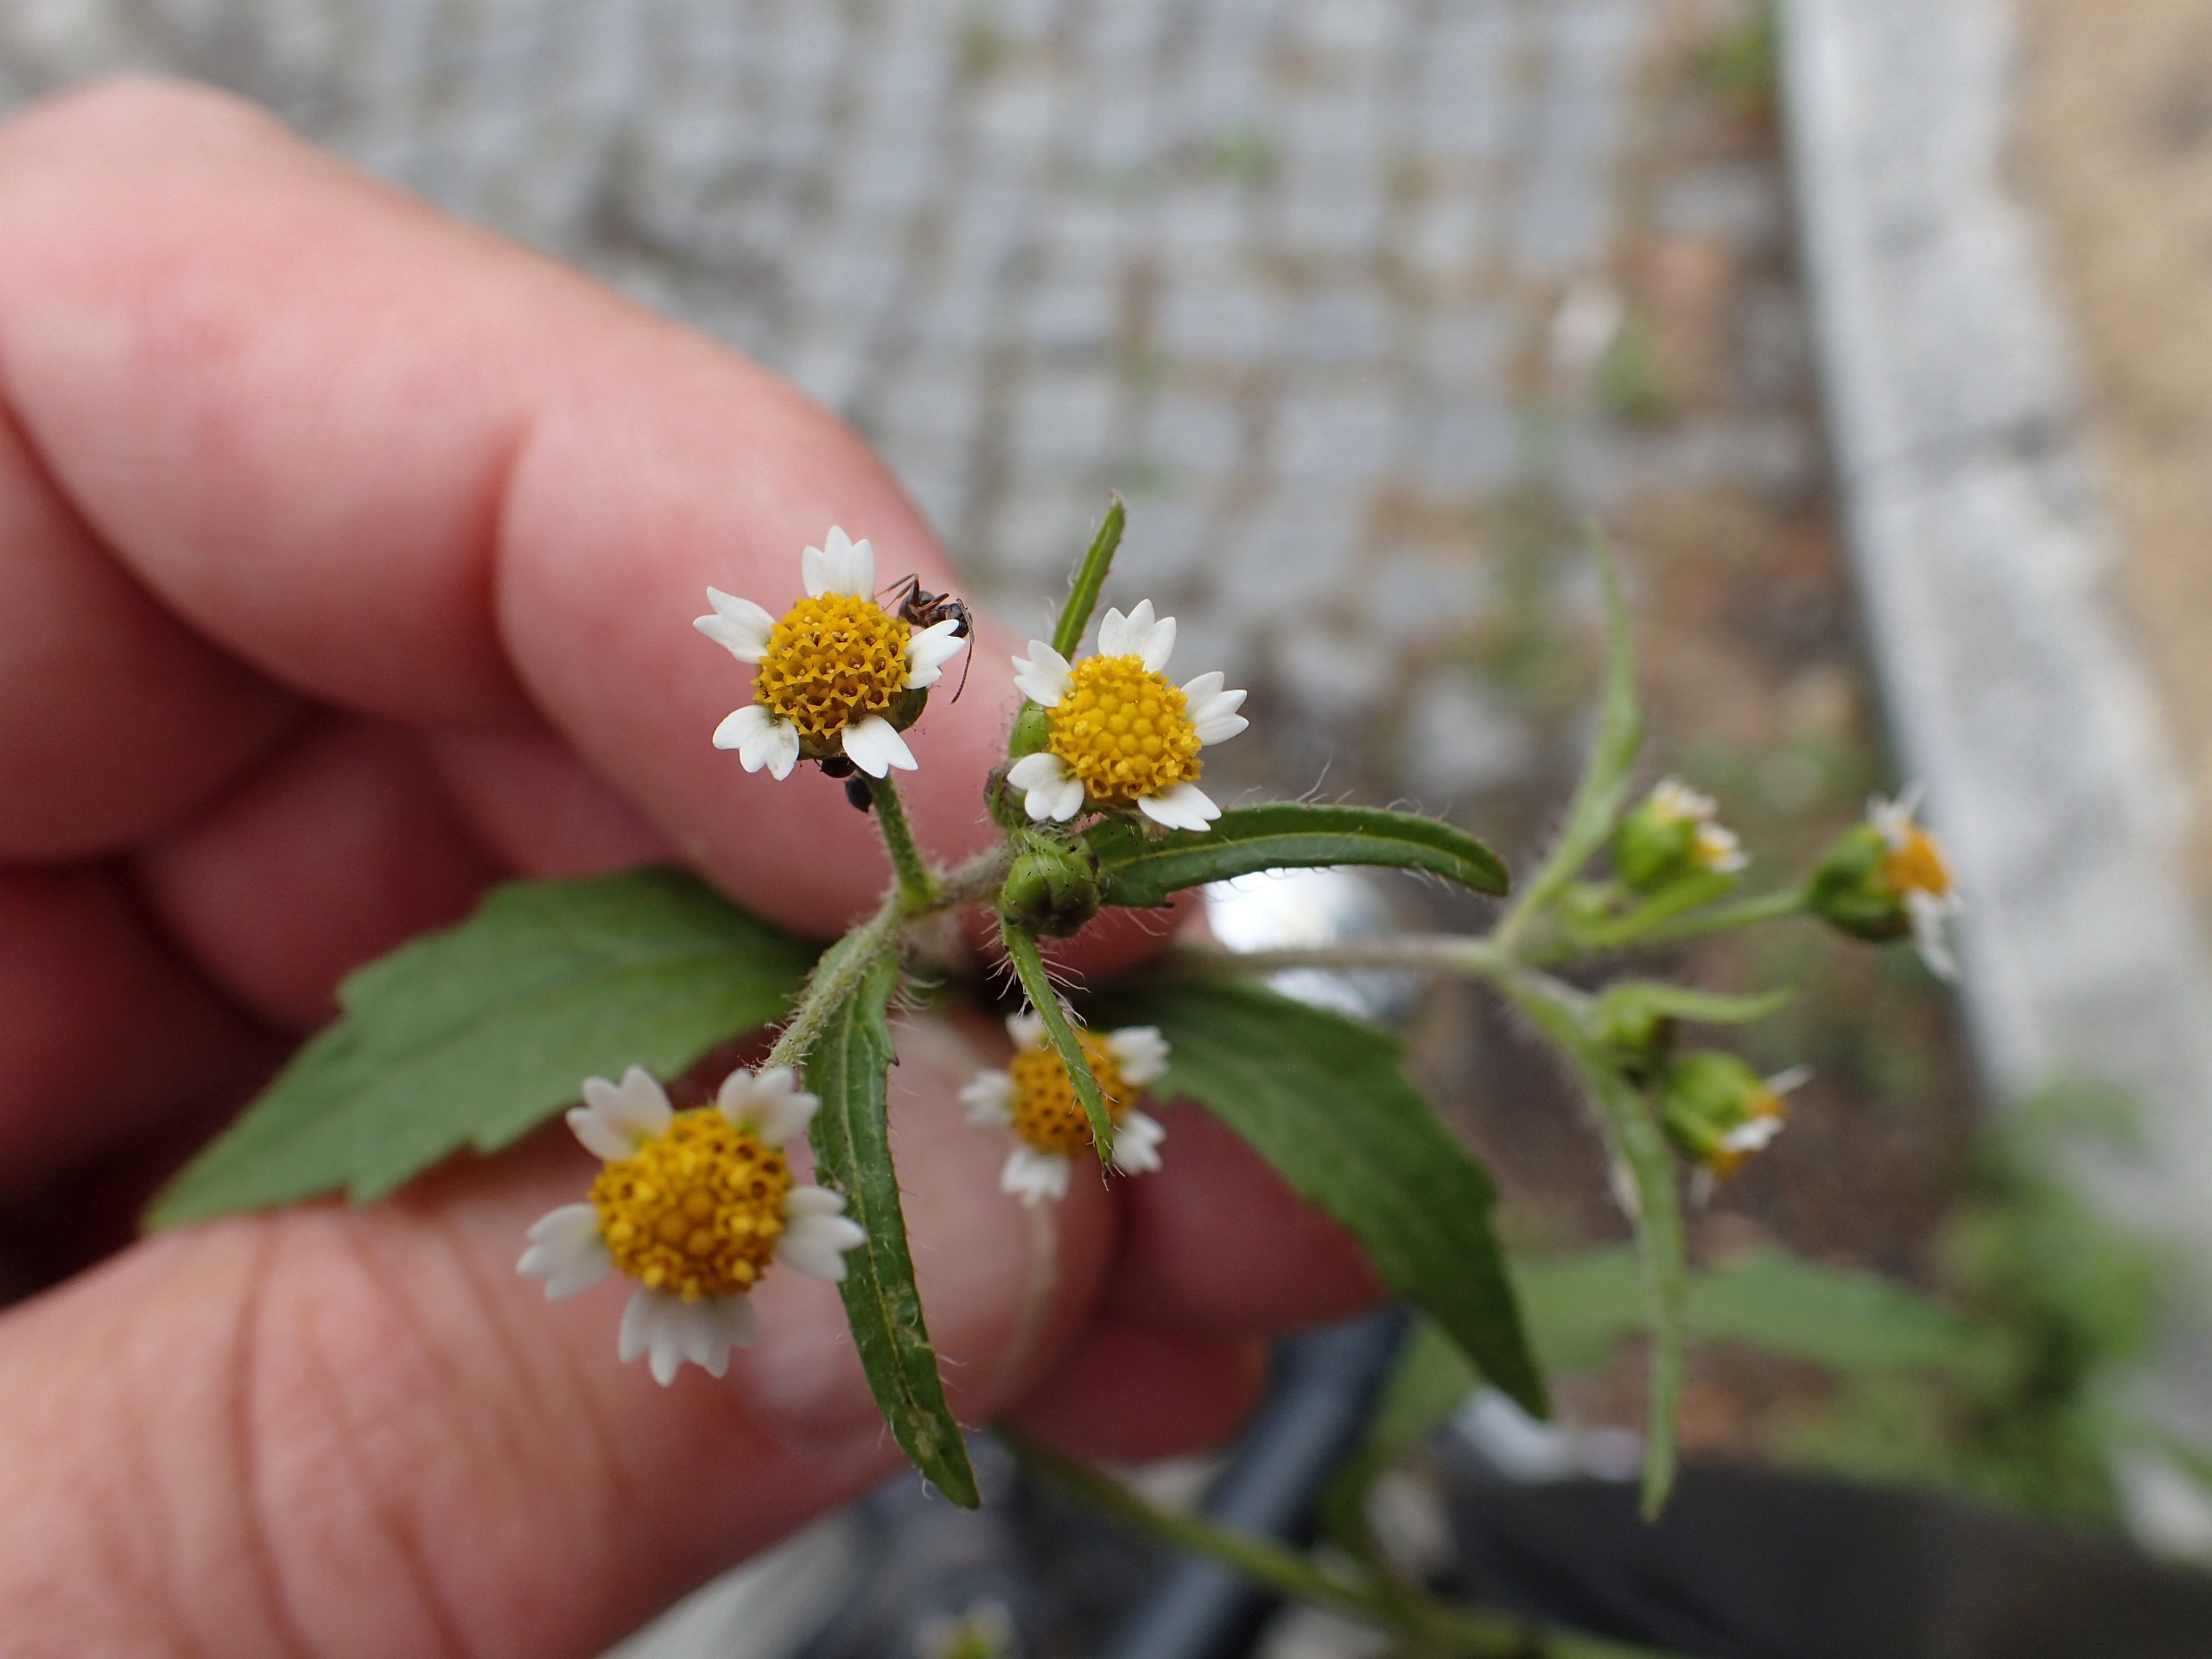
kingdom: Plantae
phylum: Tracheophyta
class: Magnoliopsida
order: Asterales
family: Asteraceae
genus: Galinsoga
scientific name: Galinsoga quadriradiata
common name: Kirtel-kortstråle
